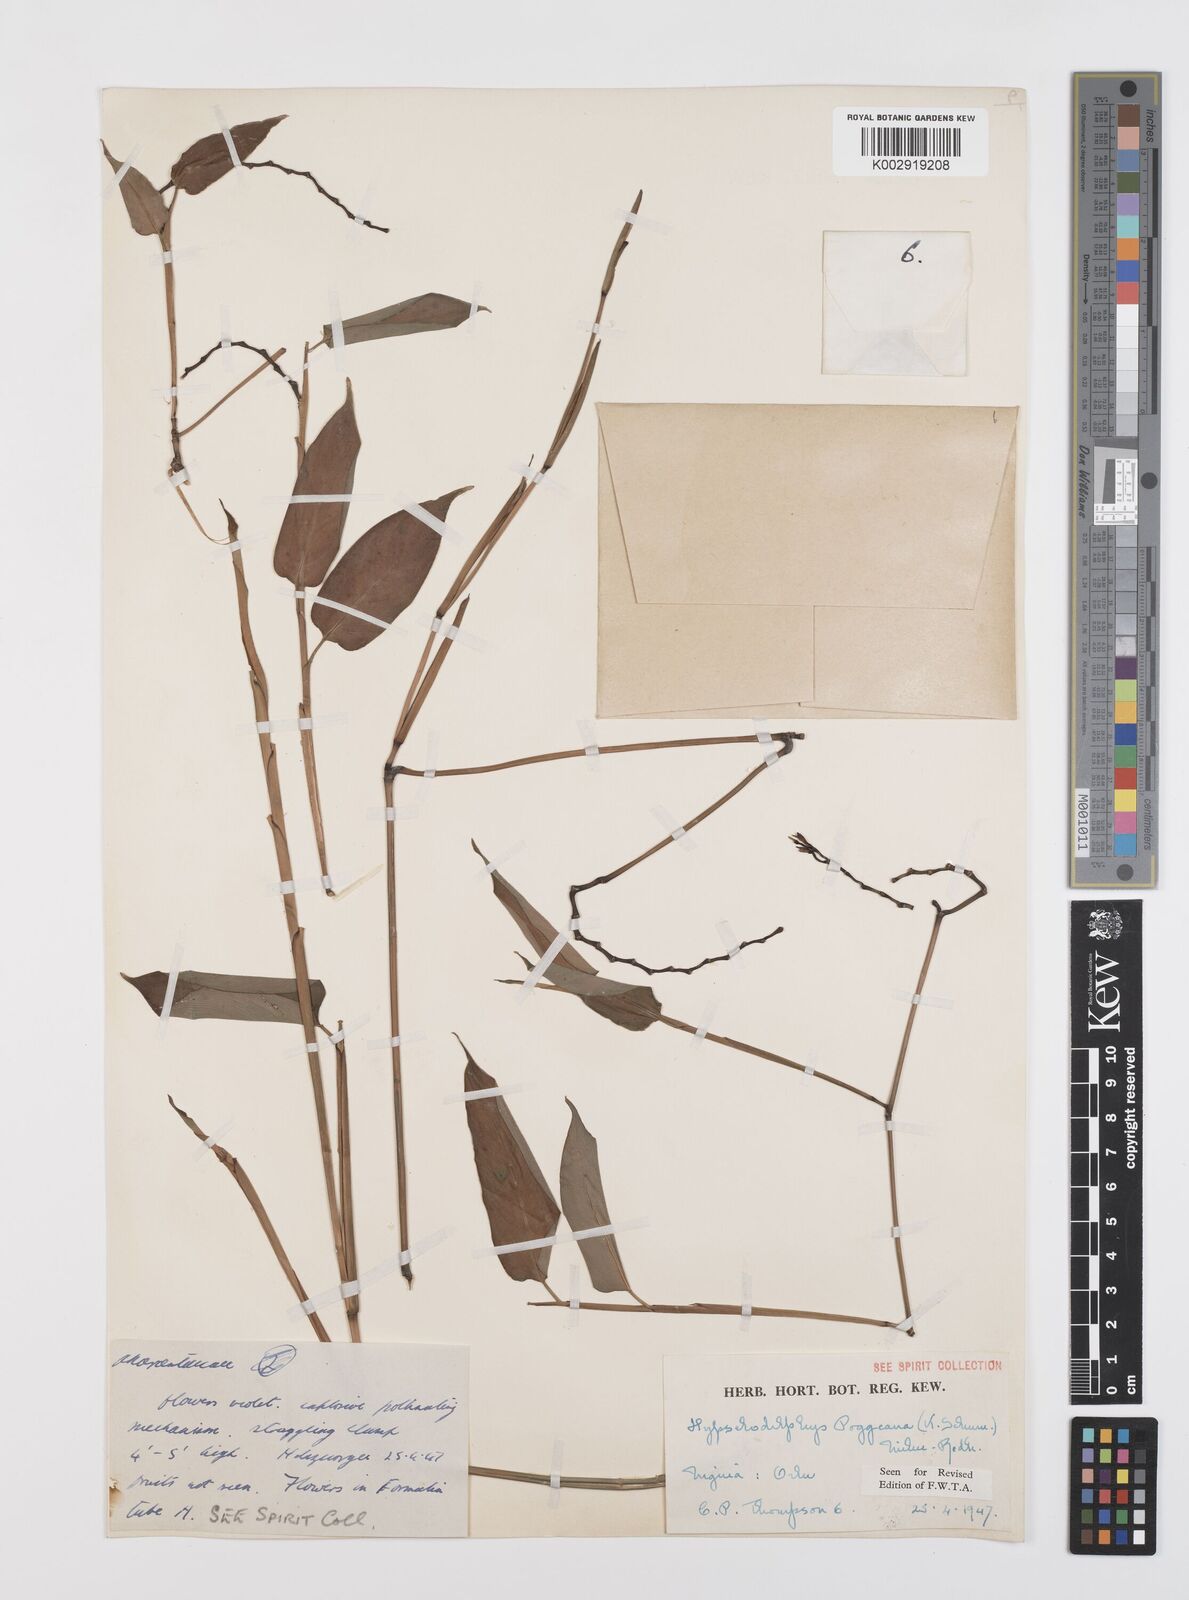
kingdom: Plantae
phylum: Tracheophyta
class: Liliopsida
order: Zingiberales
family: Marantaceae
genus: Hypselodelphys
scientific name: Hypselodelphys poggeana
